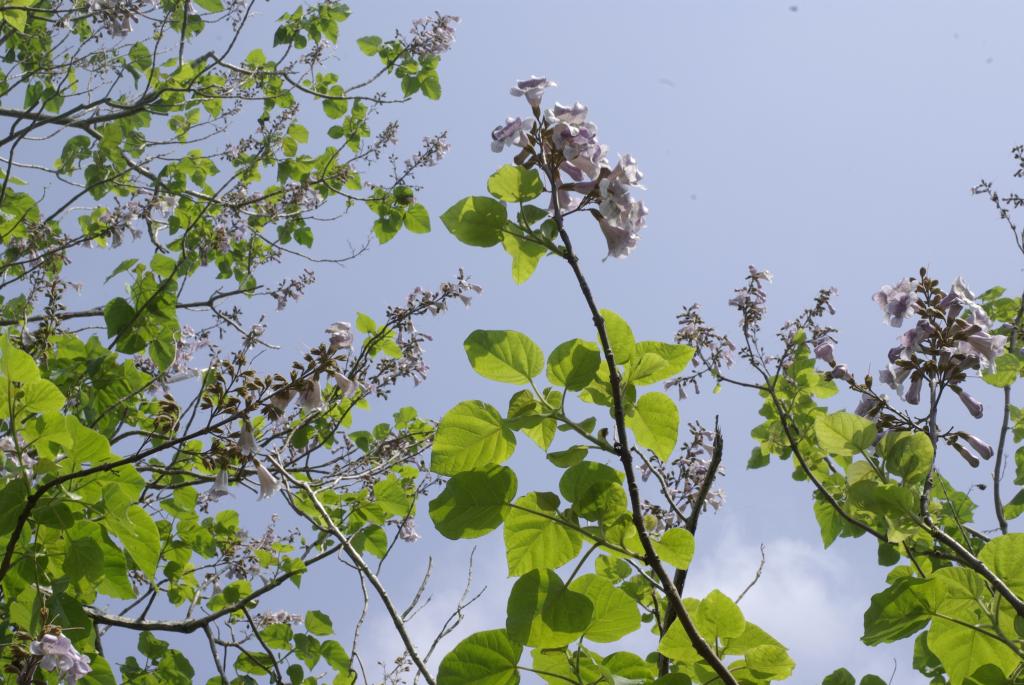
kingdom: Plantae
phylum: Tracheophyta
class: Magnoliopsida
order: Lamiales
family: Paulowniaceae
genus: Paulownia
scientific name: Paulownia fortunei
